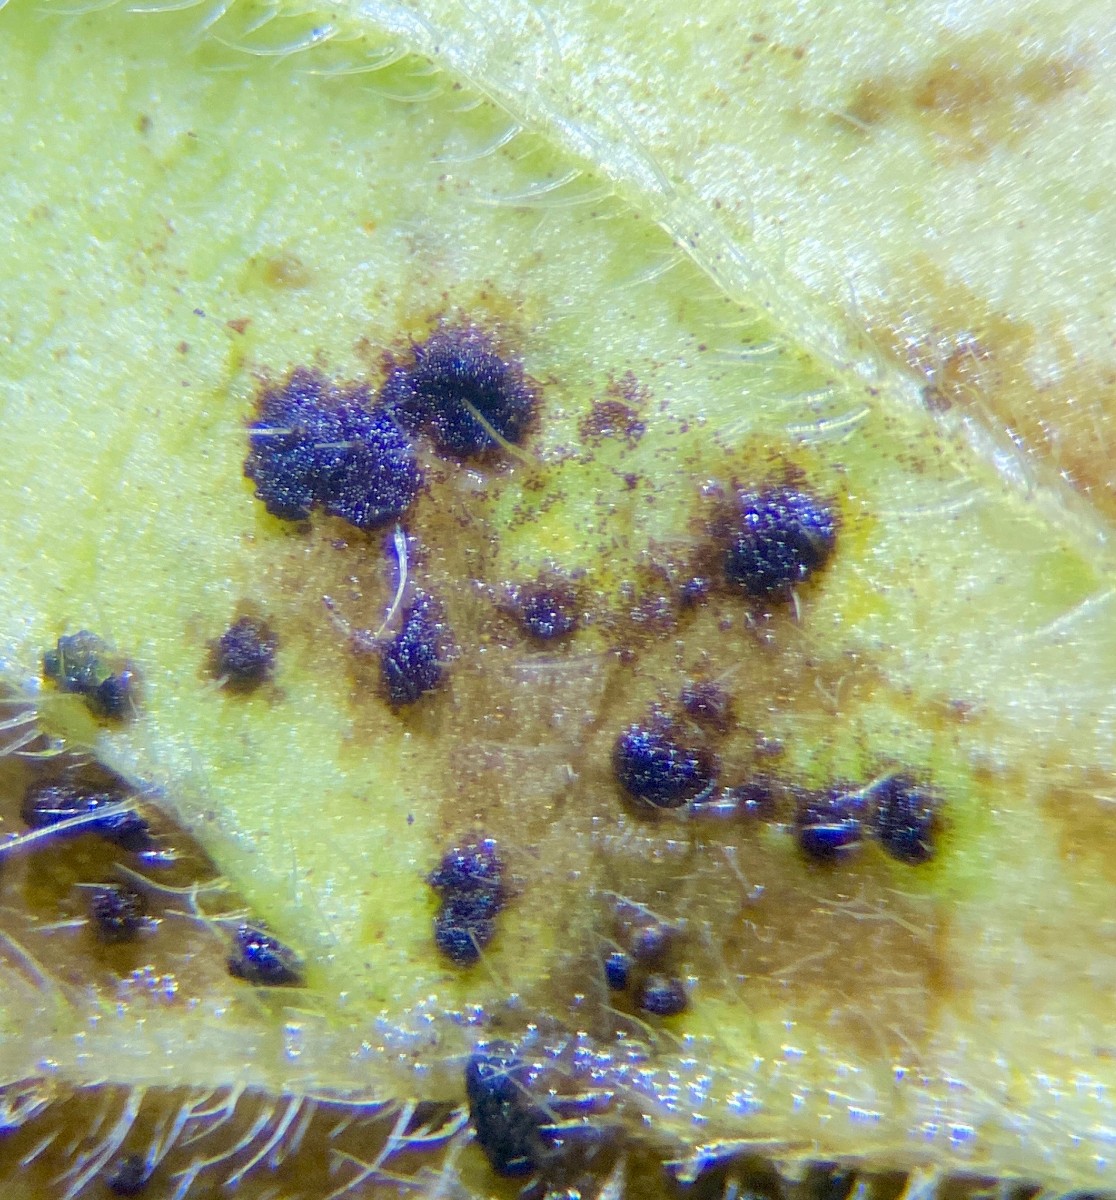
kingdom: Fungi
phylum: Basidiomycota
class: Pucciniomycetes
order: Pucciniales
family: Pucciniaceae
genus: Puccinia
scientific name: Puccinia menthae
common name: Mint rust
